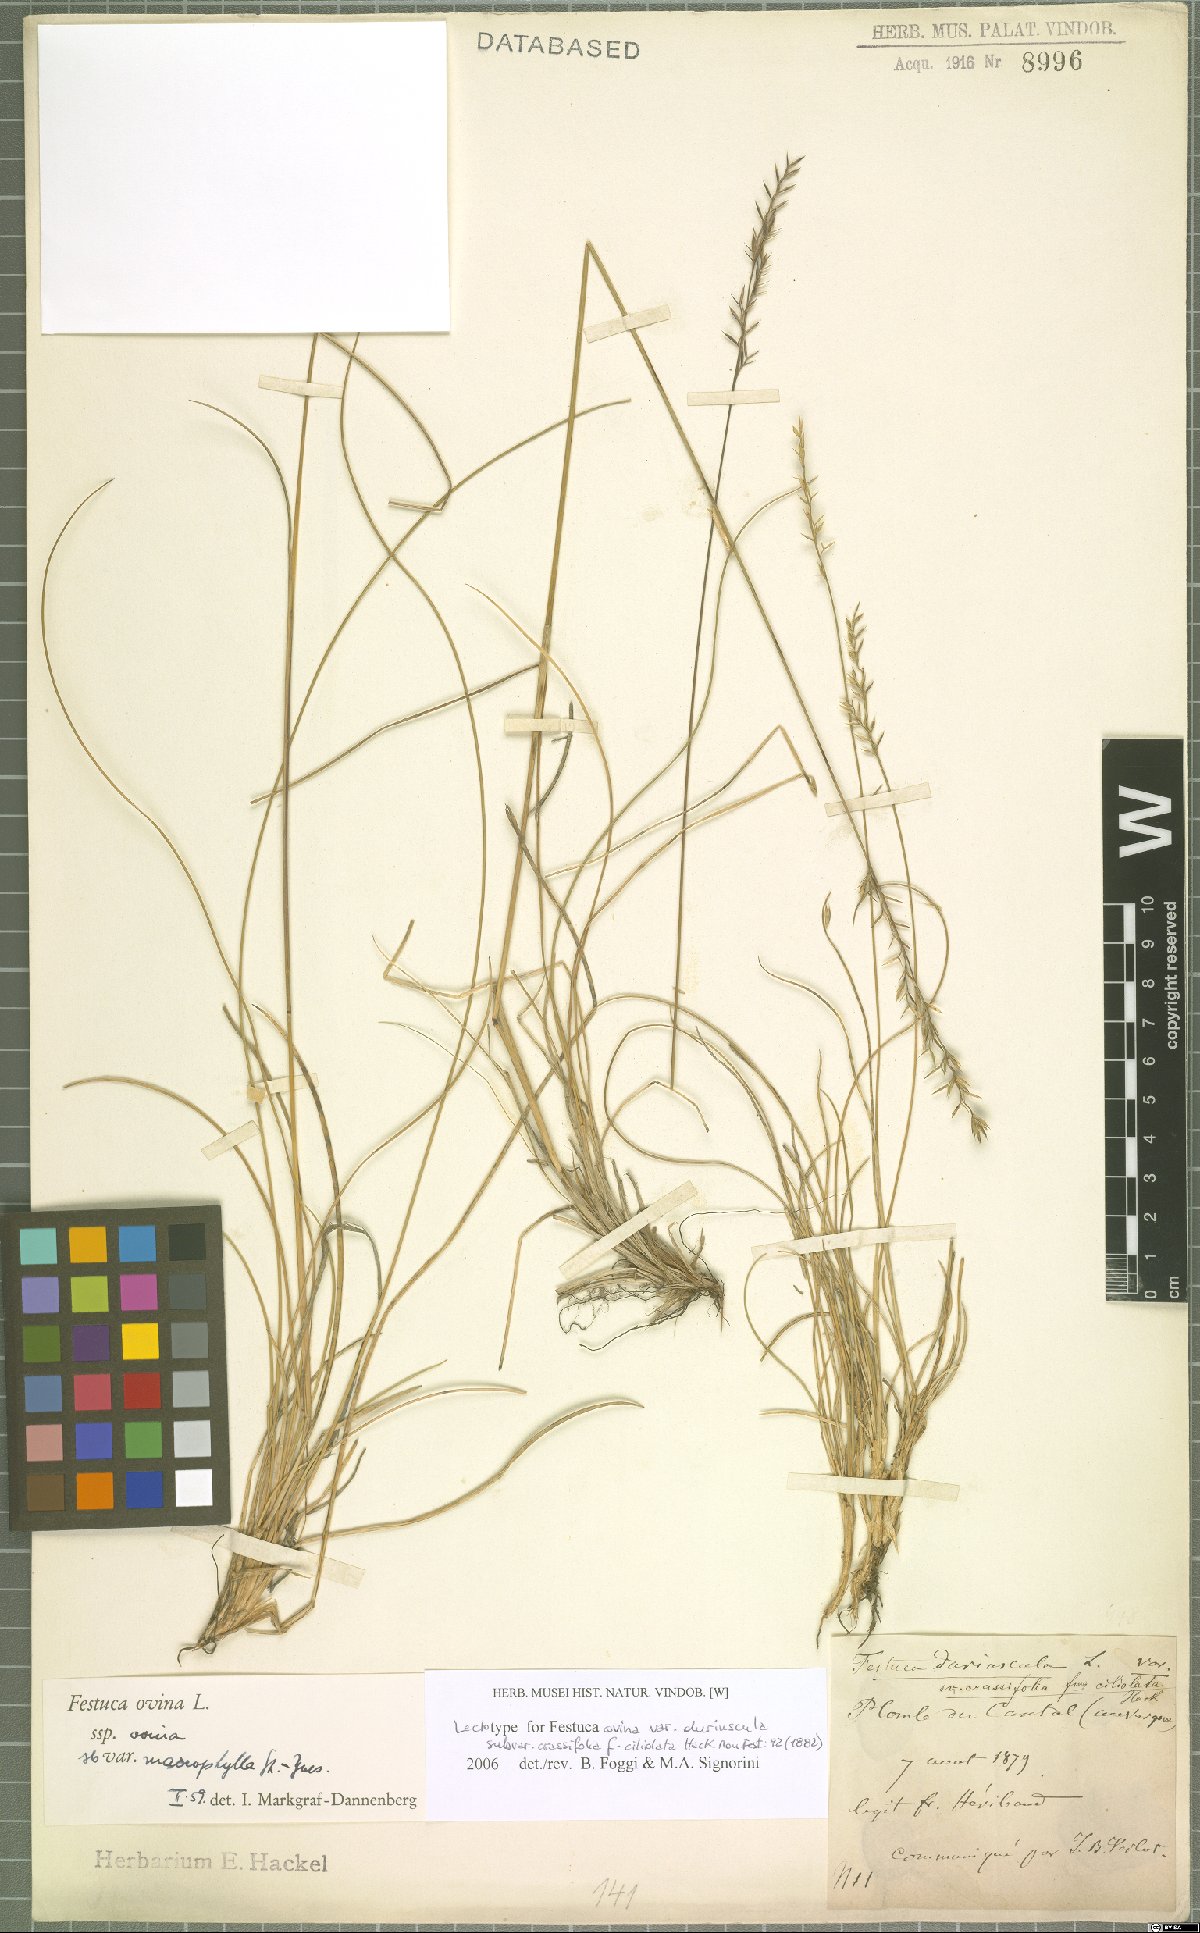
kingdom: Plantae
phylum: Tracheophyta
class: Liliopsida
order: Poales
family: Poaceae
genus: Festuca
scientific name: Festuca ovina
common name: Sheep fescue
